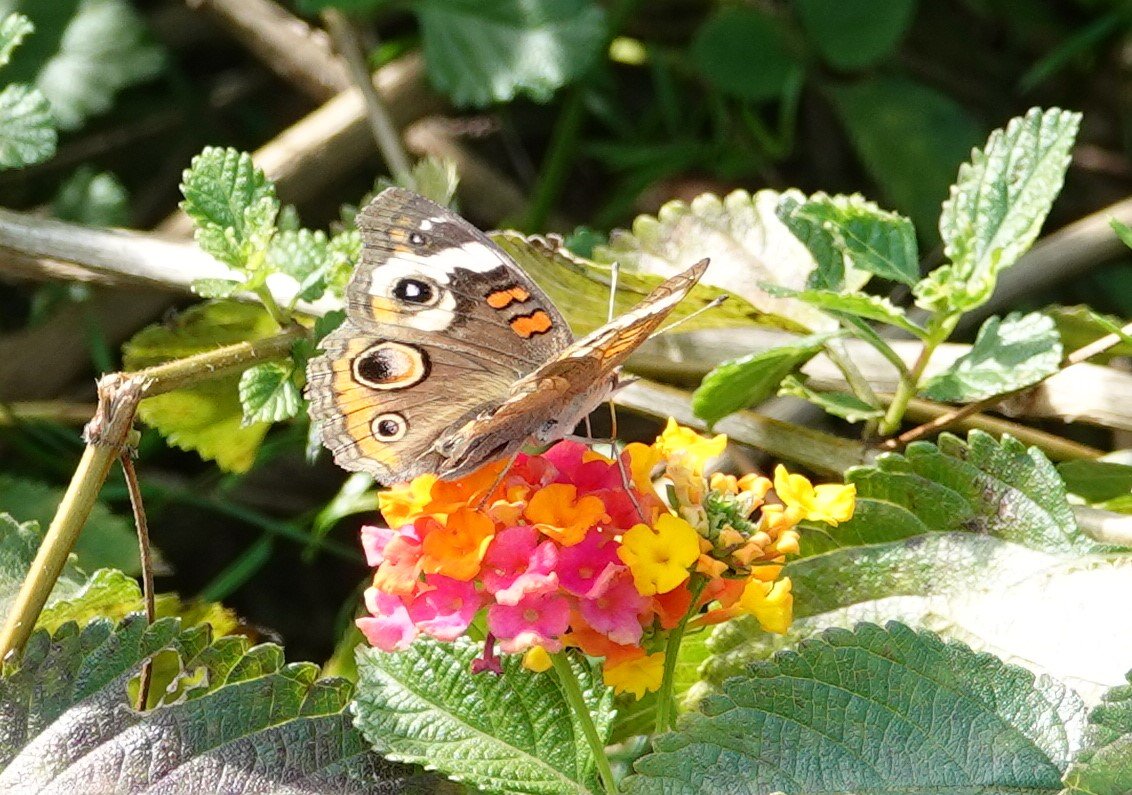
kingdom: Animalia
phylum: Arthropoda
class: Insecta
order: Lepidoptera
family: Nymphalidae
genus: Junonia
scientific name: Junonia coenia
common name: Common Buckeye
